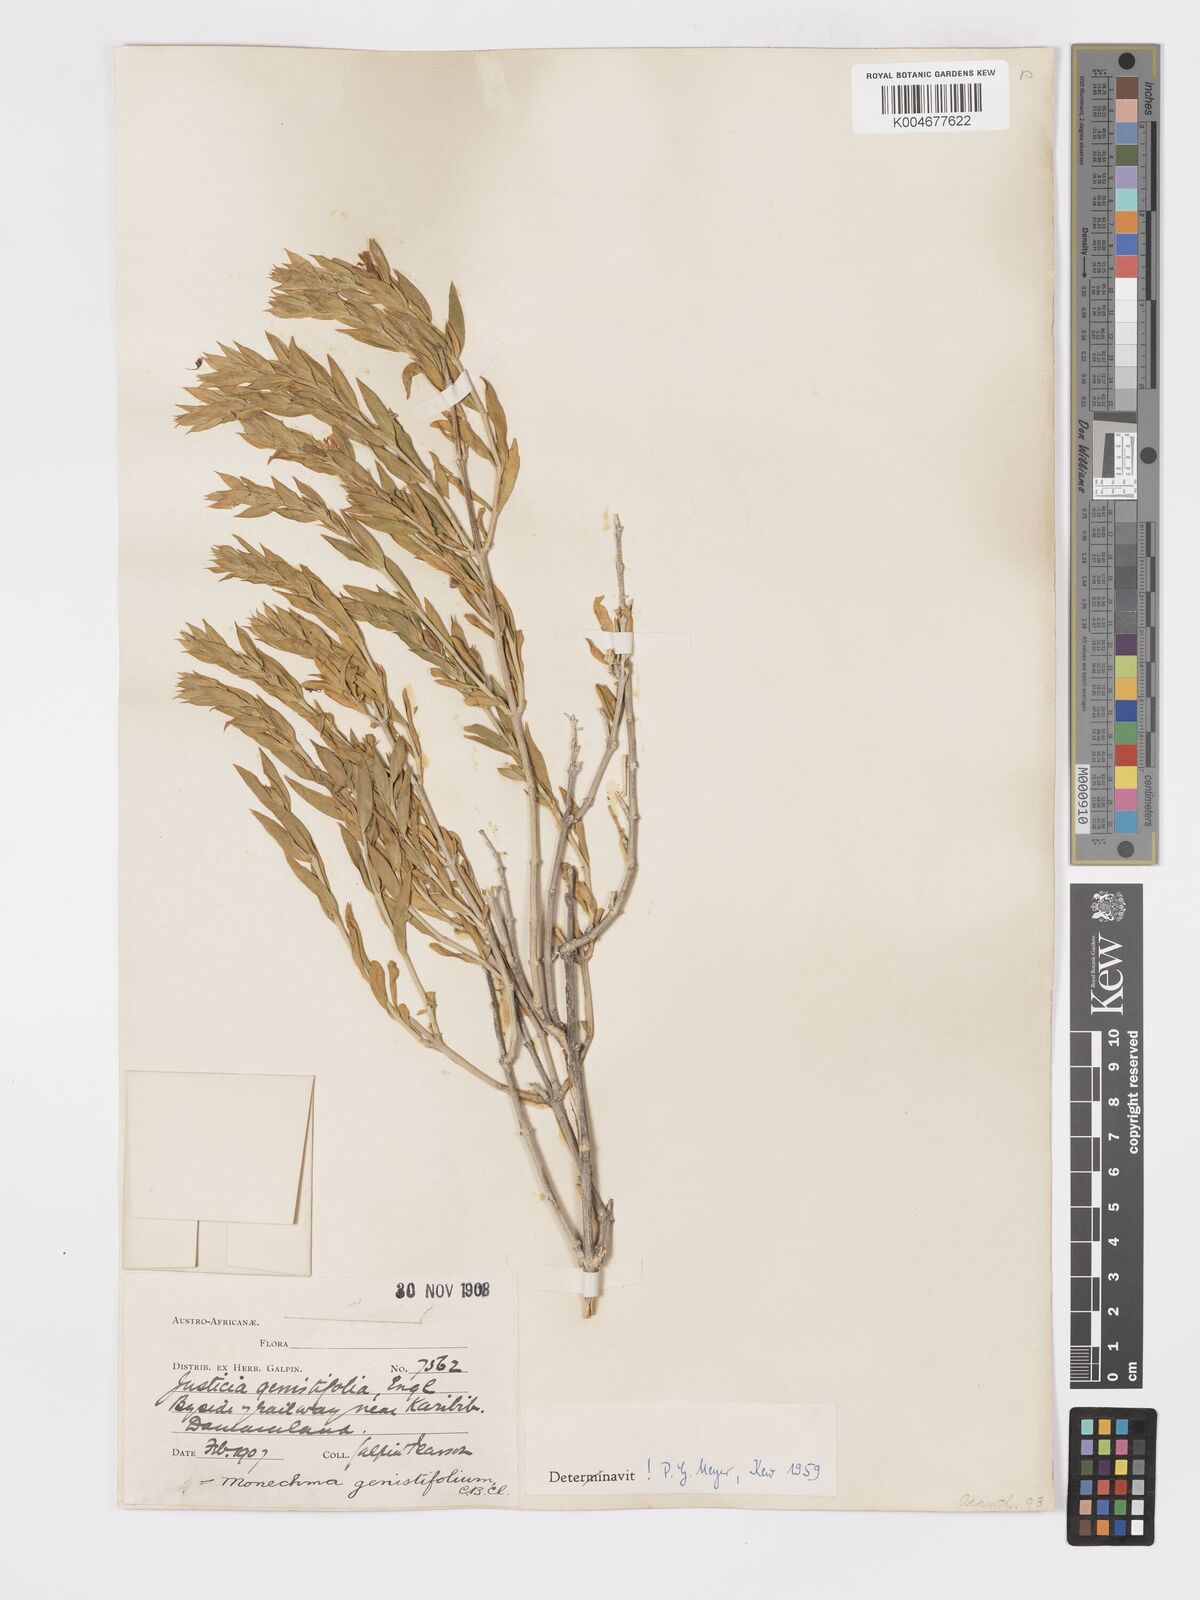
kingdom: Plantae
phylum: Tracheophyta
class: Magnoliopsida
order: Lamiales
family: Acanthaceae
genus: Pogonospermum
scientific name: Pogonospermum
